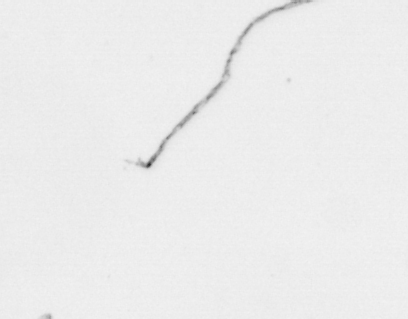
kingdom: Chromista
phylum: Ochrophyta
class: Bacillariophyceae
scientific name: Bacillariophyceae
